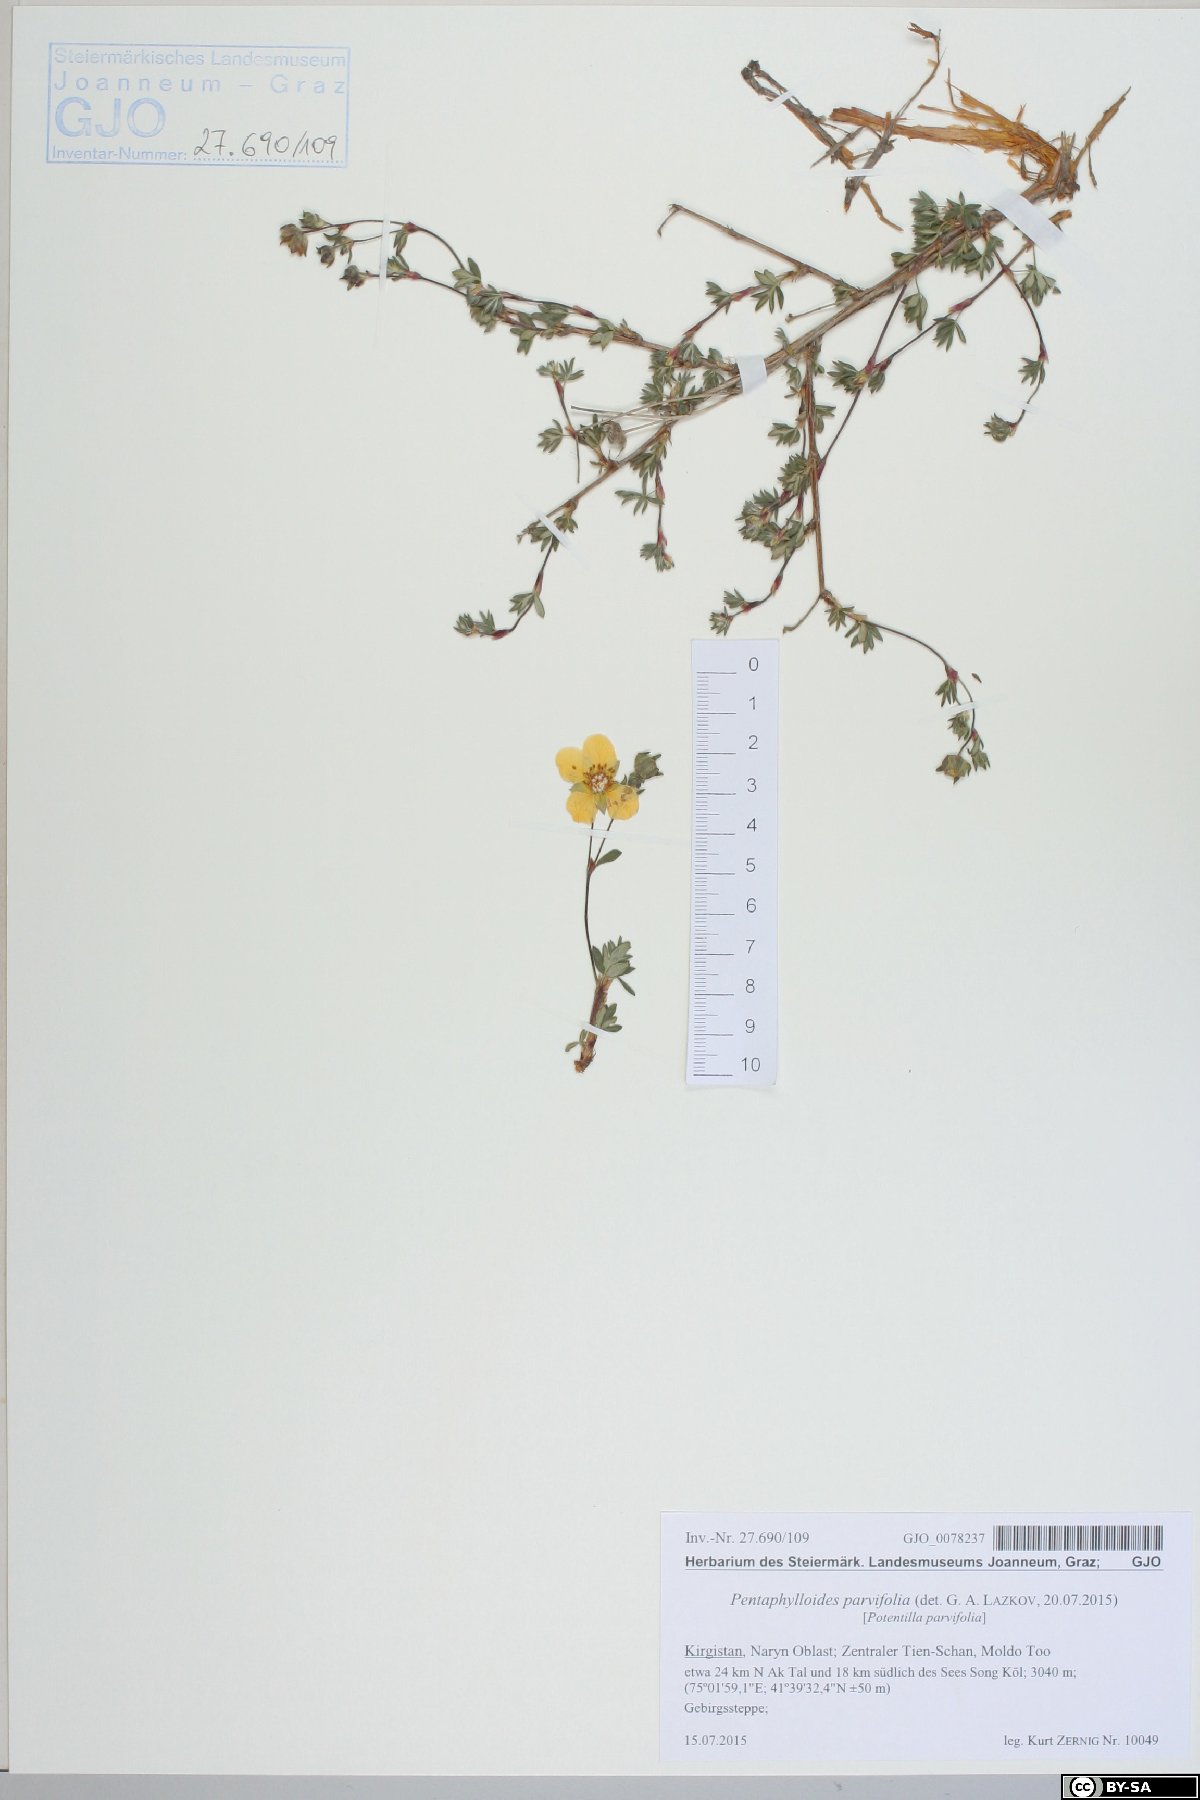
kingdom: Plantae
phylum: Tracheophyta
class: Magnoliopsida
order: Rosales
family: Rosaceae
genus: Dasiphora
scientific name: Dasiphora parvifolia
